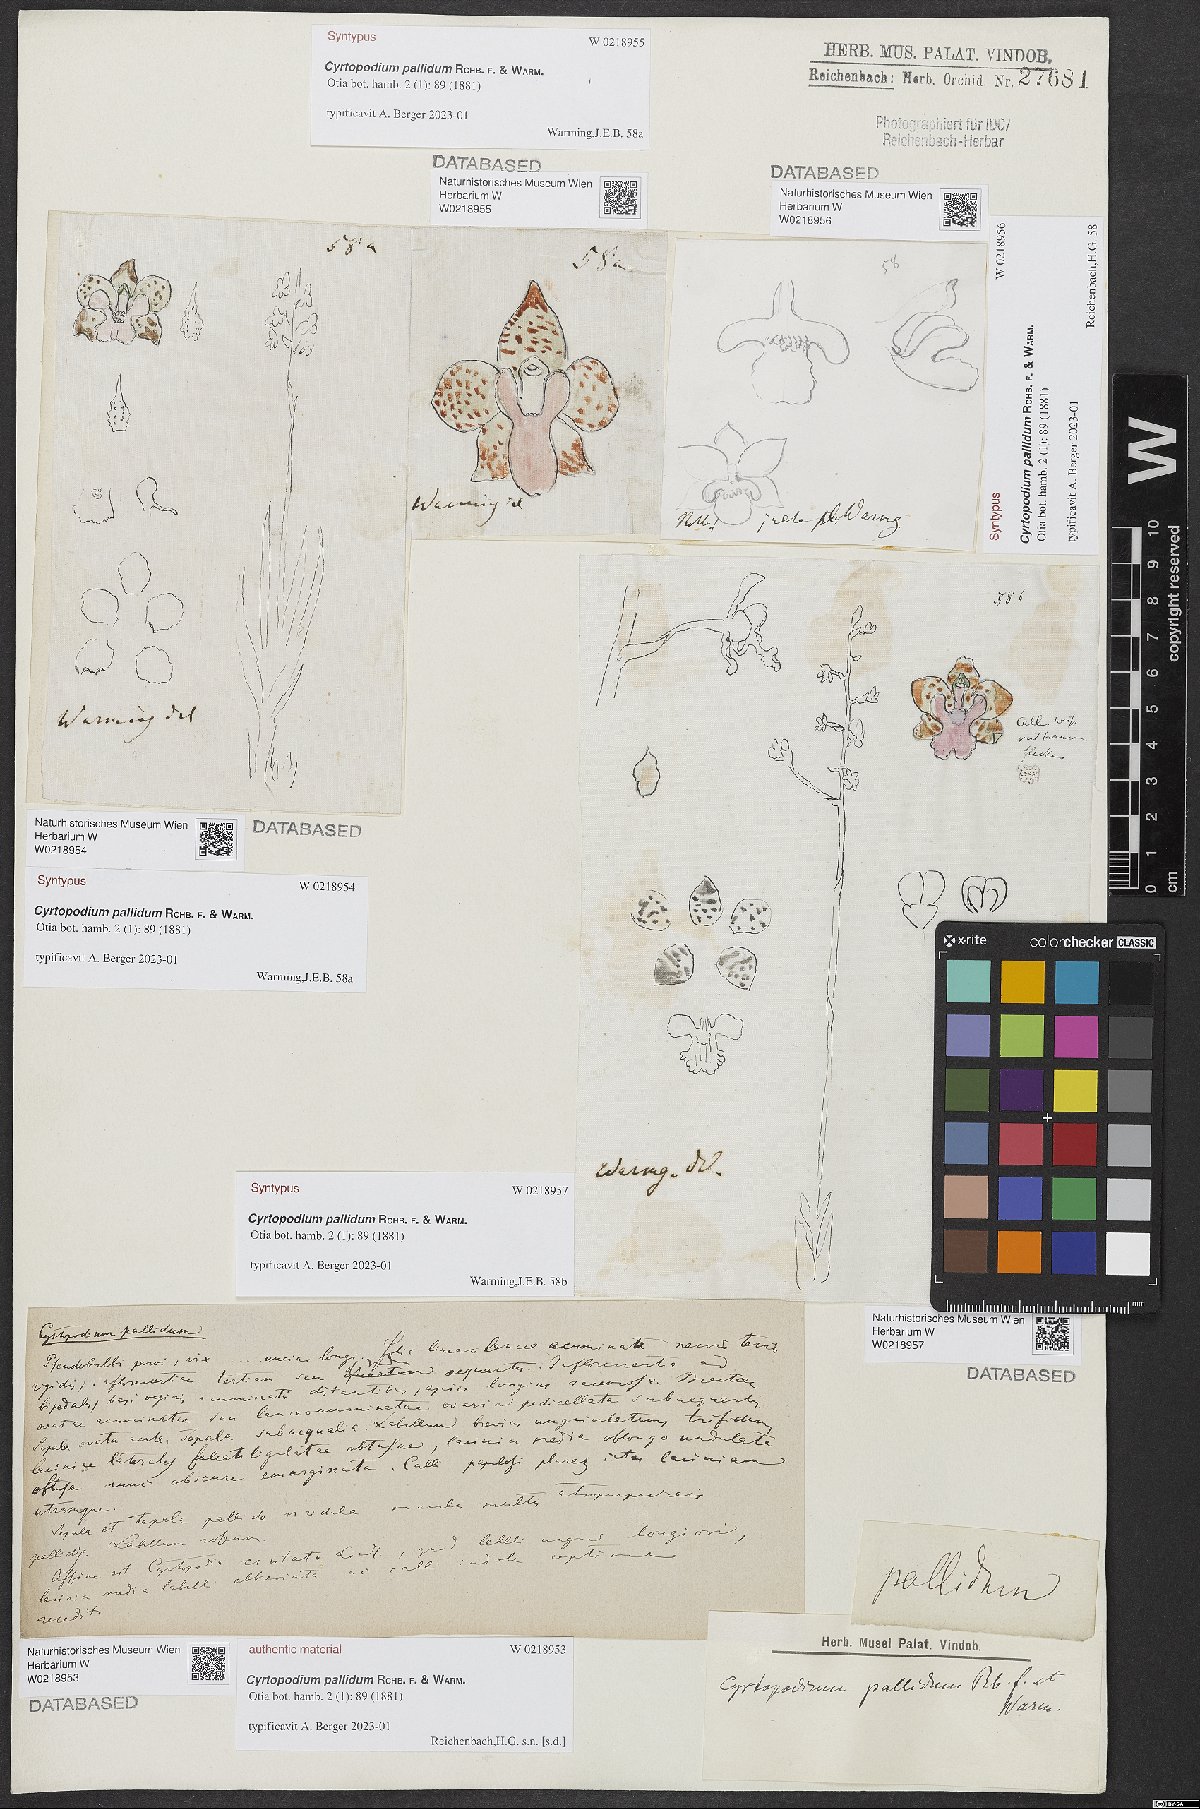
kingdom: Plantae
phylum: Tracheophyta
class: Liliopsida
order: Asparagales
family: Orchidaceae
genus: Cyrtopodium
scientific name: Cyrtopodium pallidum
